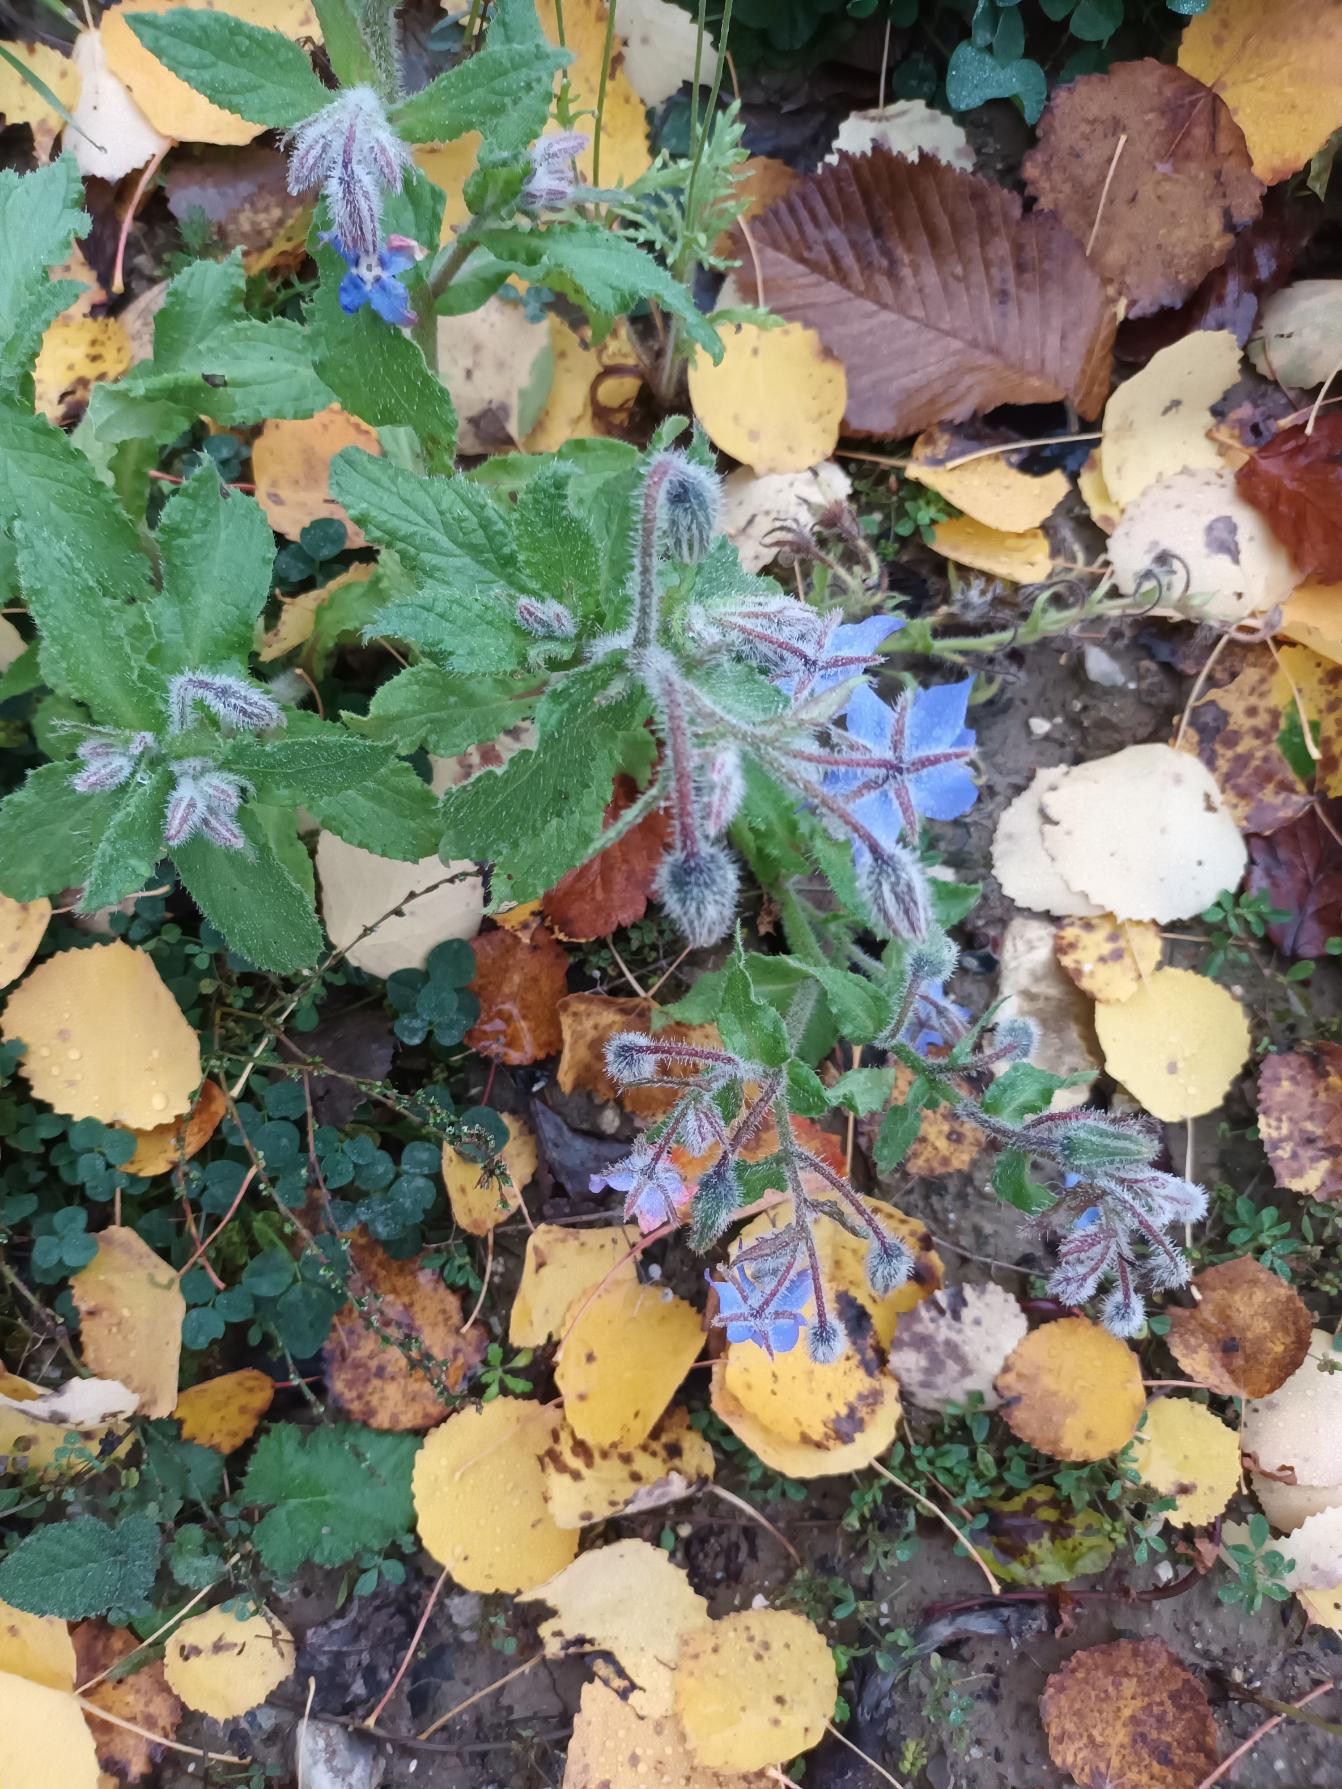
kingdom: Plantae
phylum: Tracheophyta
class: Magnoliopsida
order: Boraginales
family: Boraginaceae
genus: Borago
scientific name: Borago officinalis
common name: Hjulkrone
